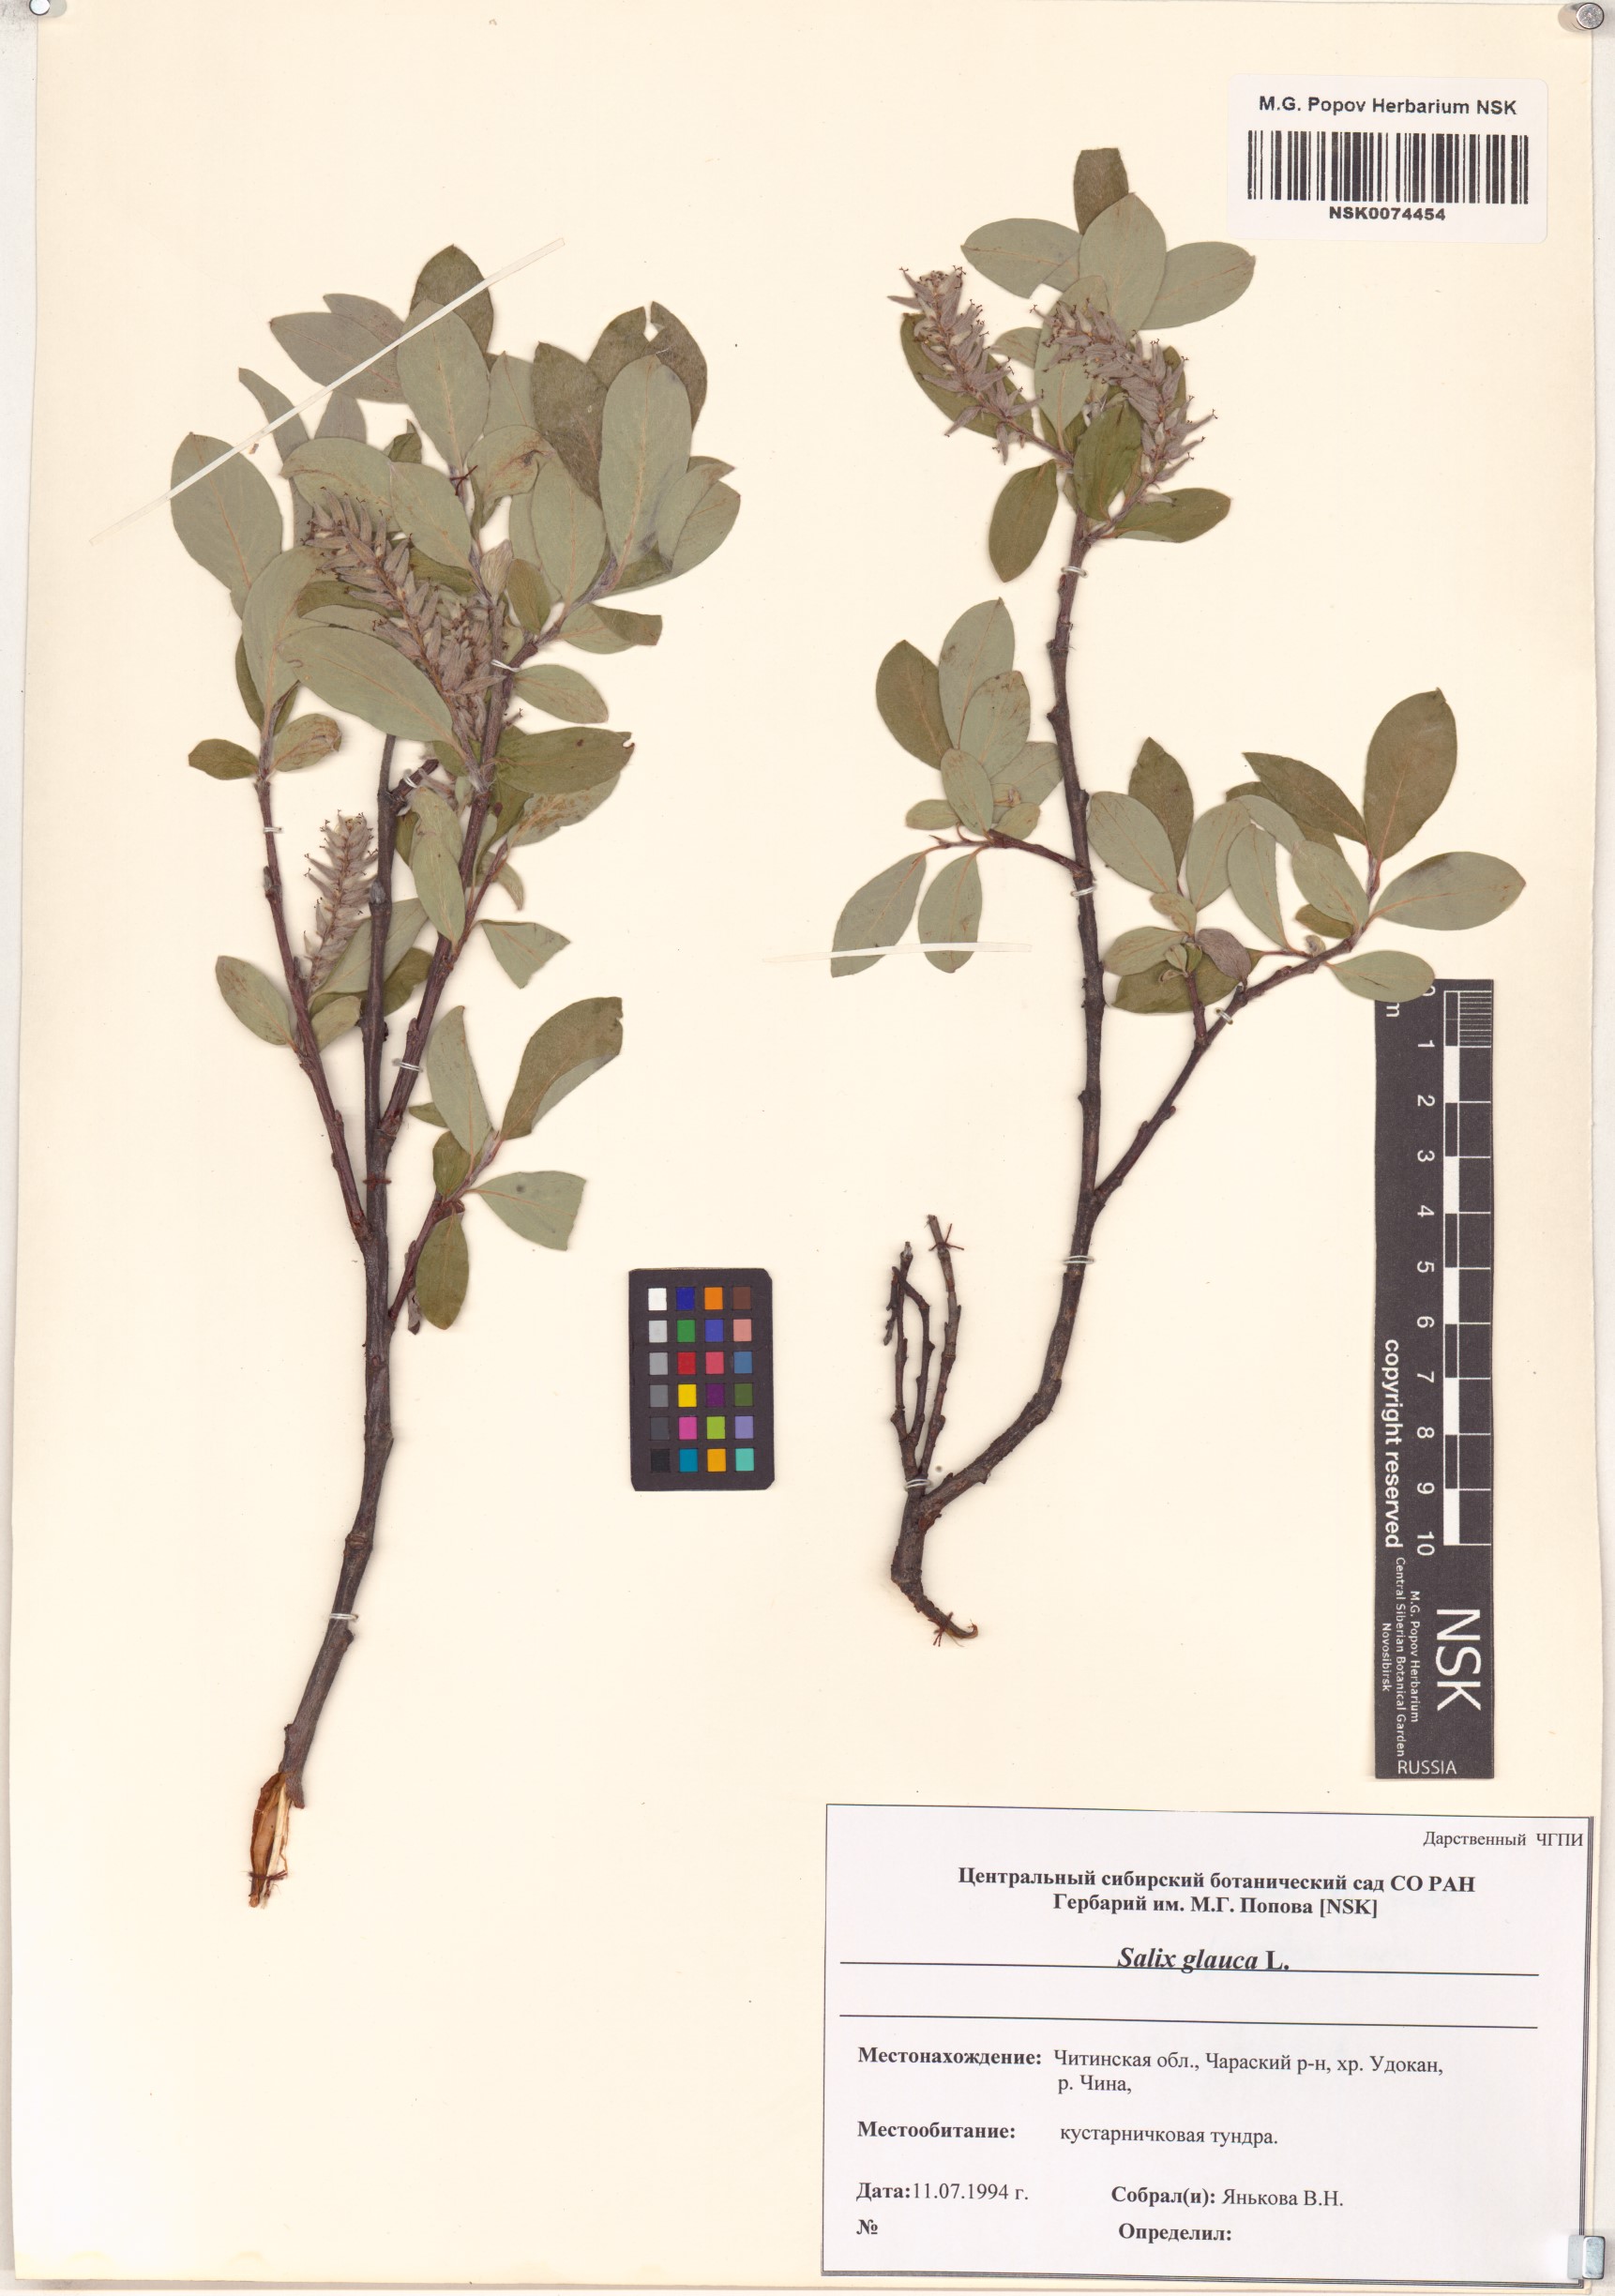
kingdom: Plantae
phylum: Tracheophyta
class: Magnoliopsida
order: Malpighiales
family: Salicaceae
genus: Salix
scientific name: Salix glauca
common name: Glaucous willow
